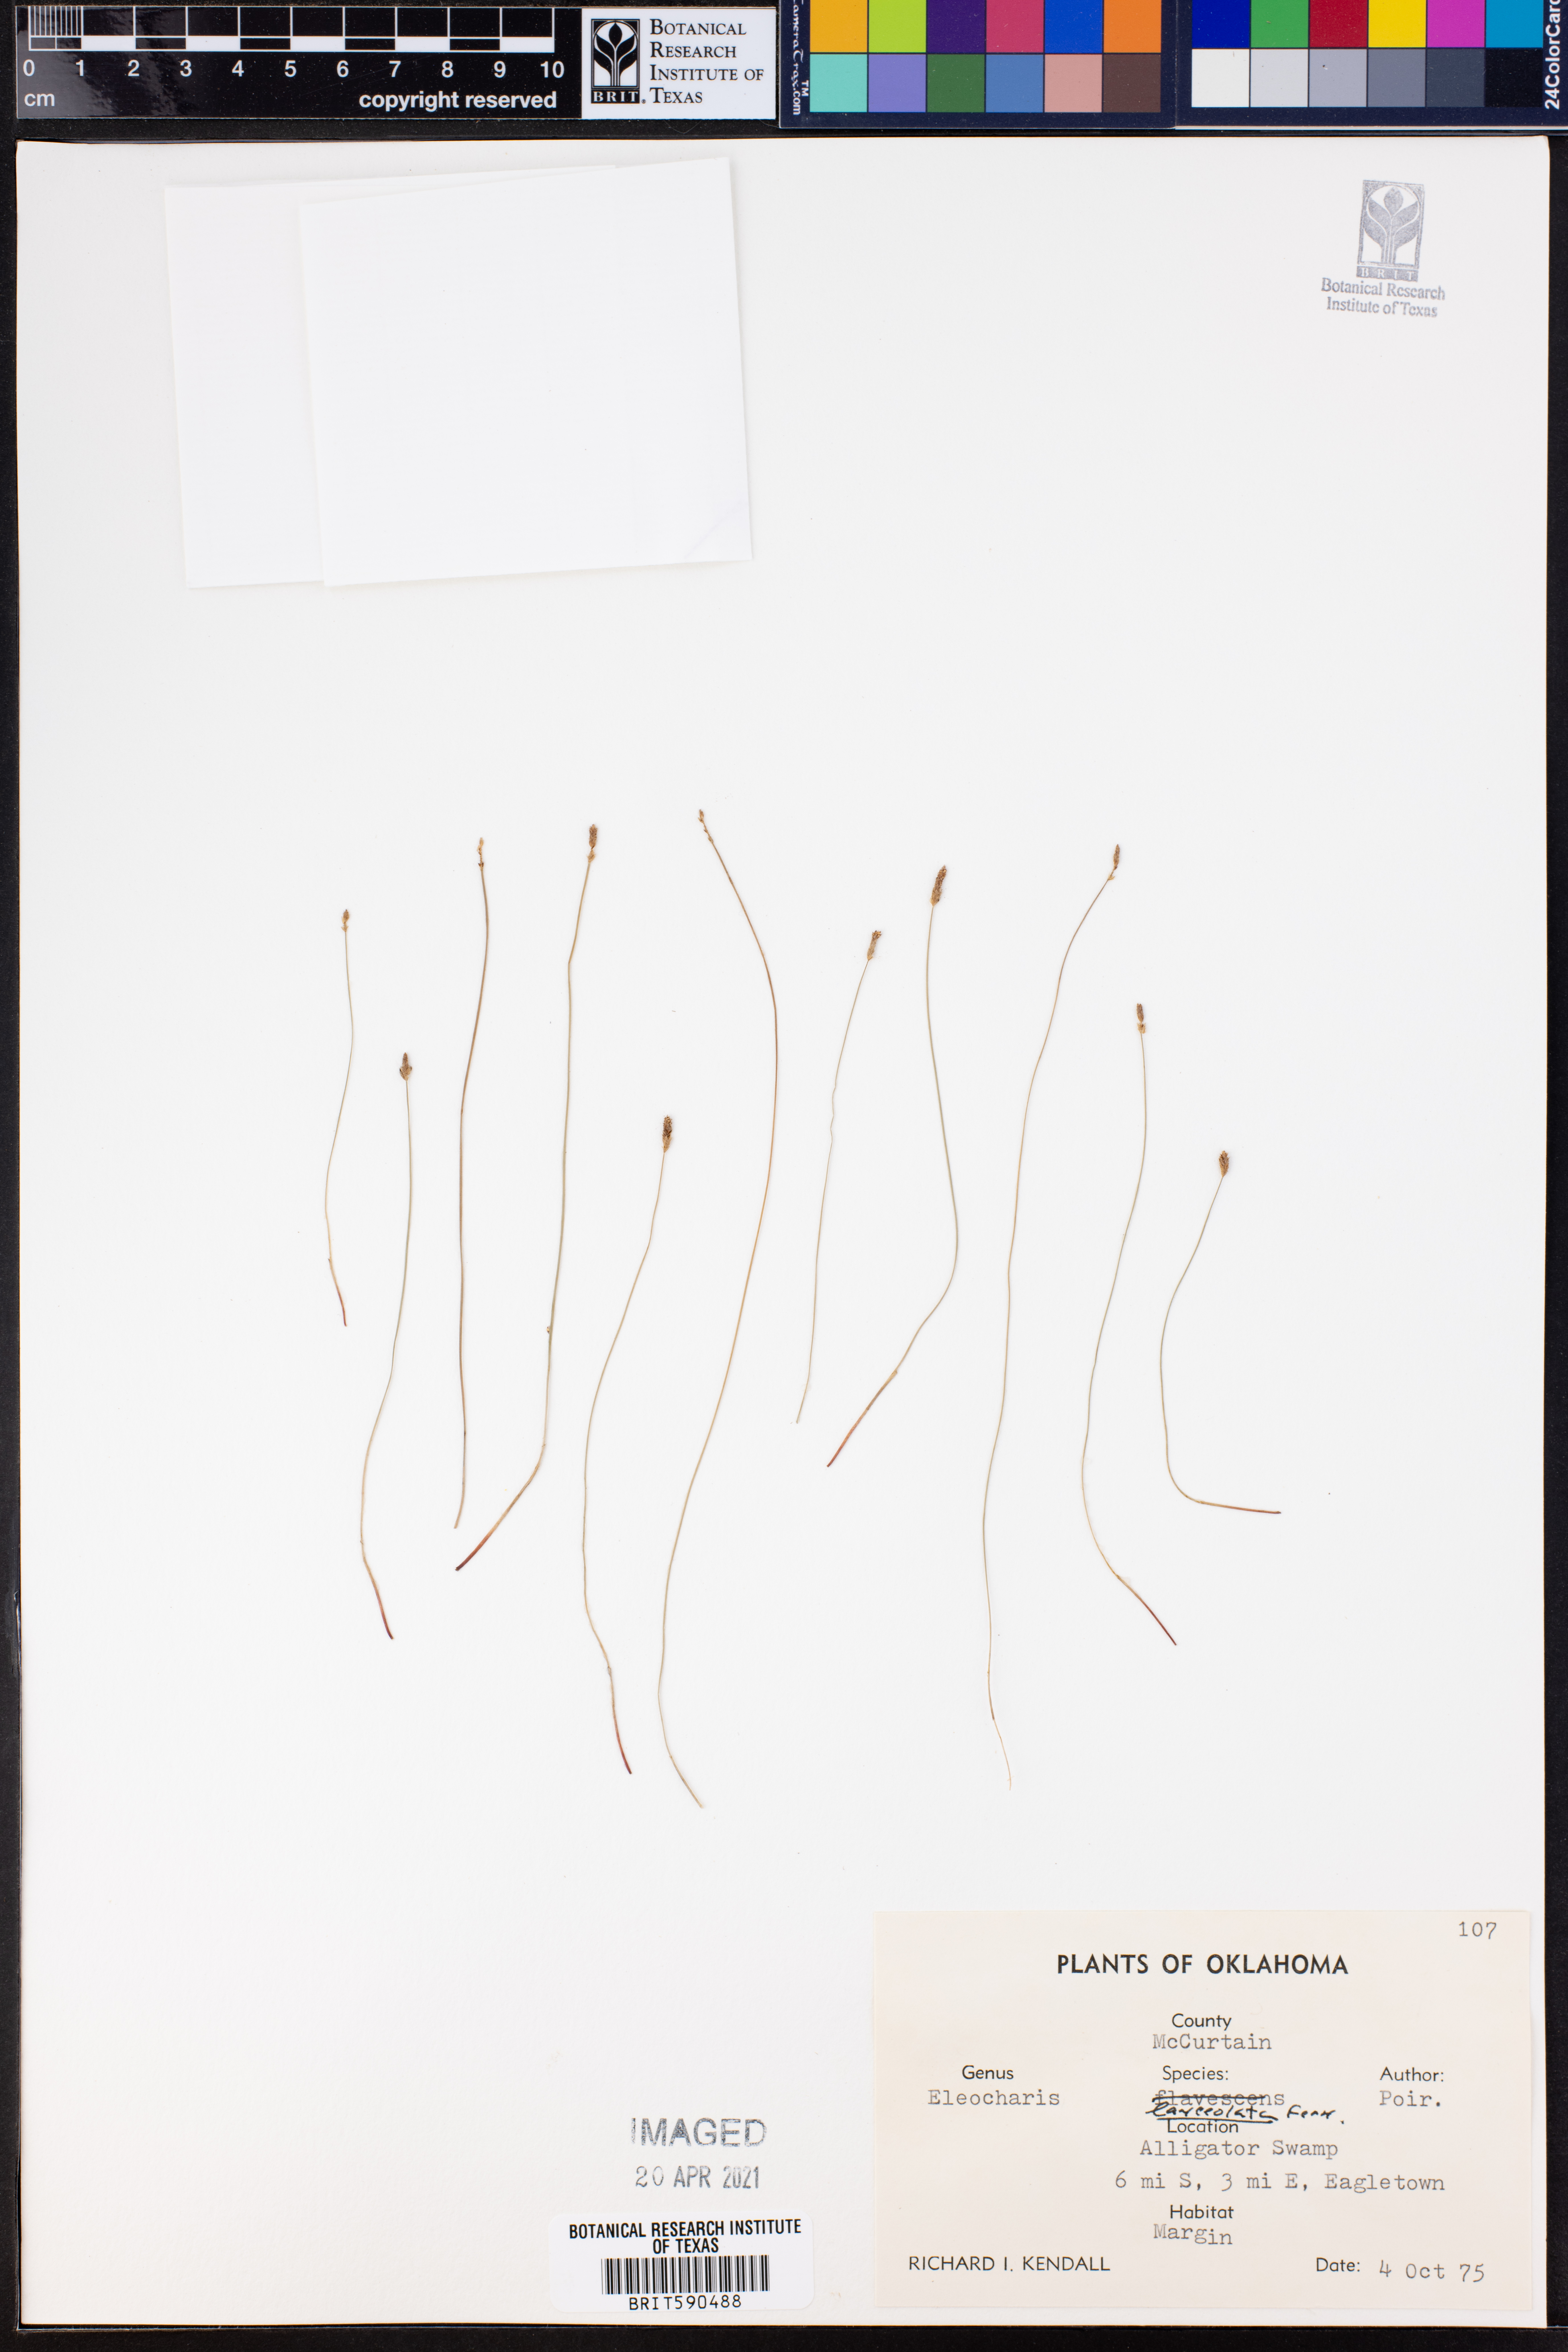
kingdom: Plantae
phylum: Tracheophyta
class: Liliopsida
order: Poales
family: Cyperaceae
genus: Eleocharis
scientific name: Eleocharis lanceolata
